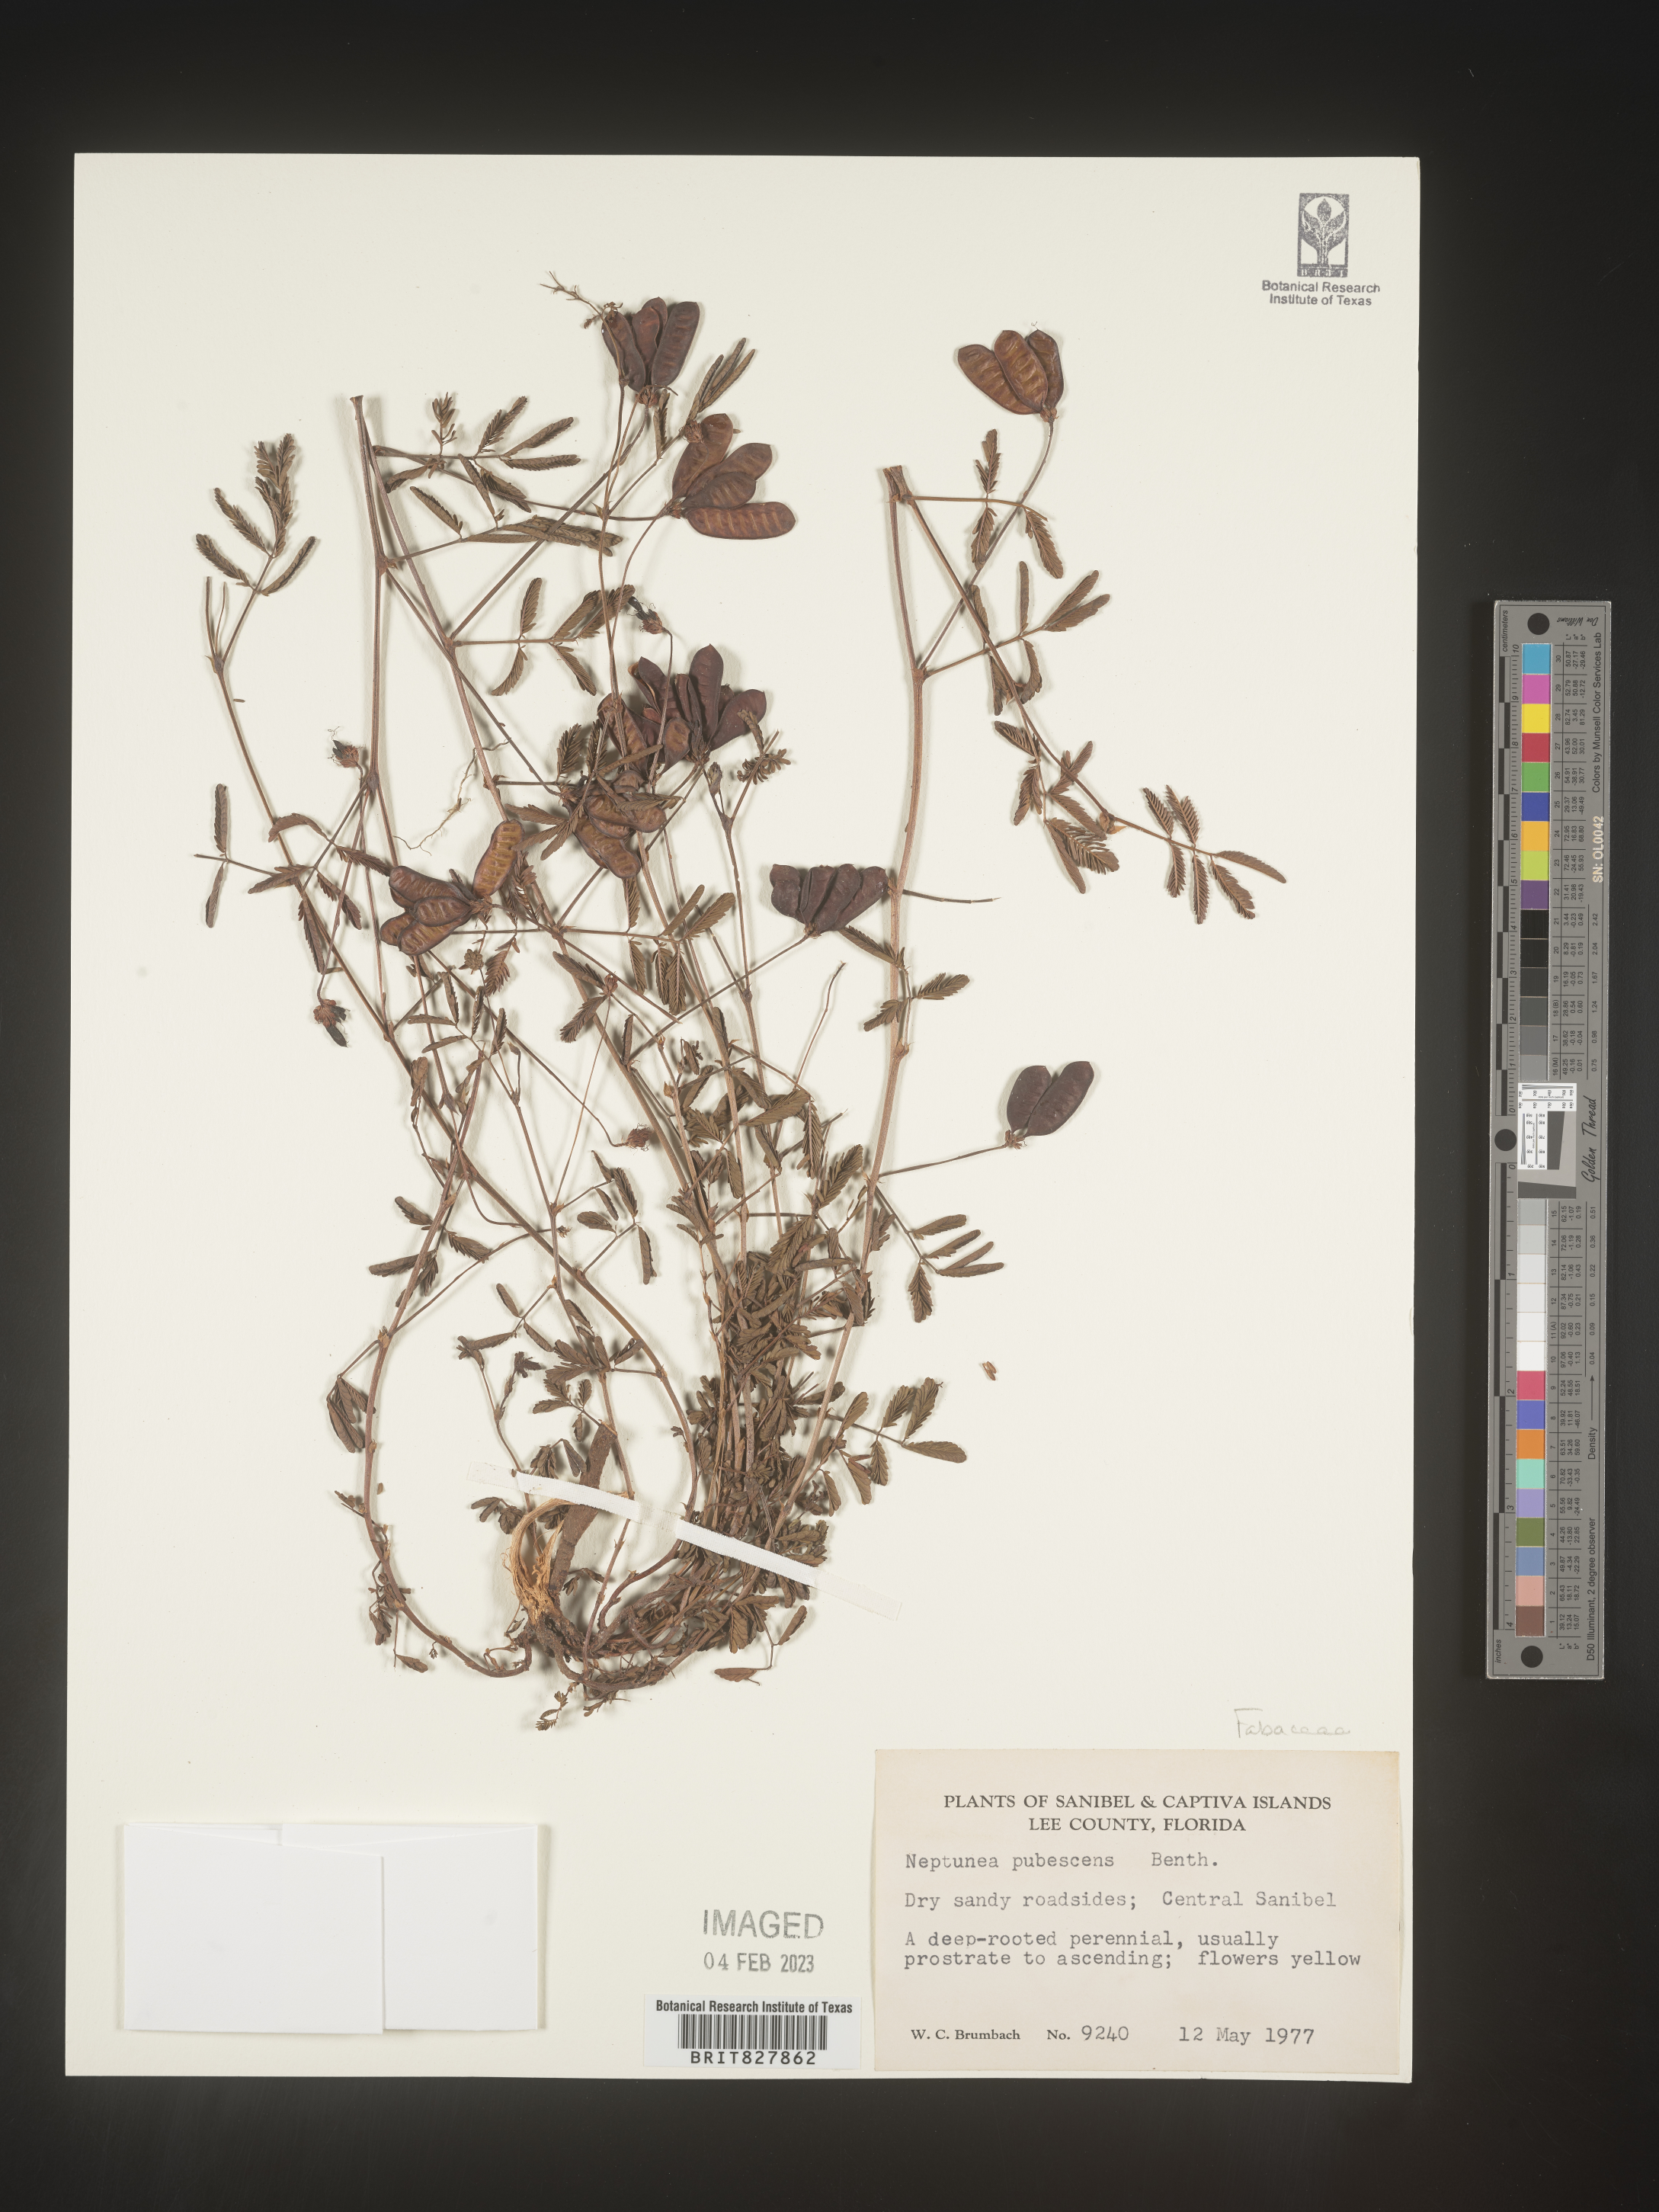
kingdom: Plantae
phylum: Tracheophyta
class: Magnoliopsida
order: Fabales
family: Fabaceae
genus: Neptunia
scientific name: Neptunia pubescens
